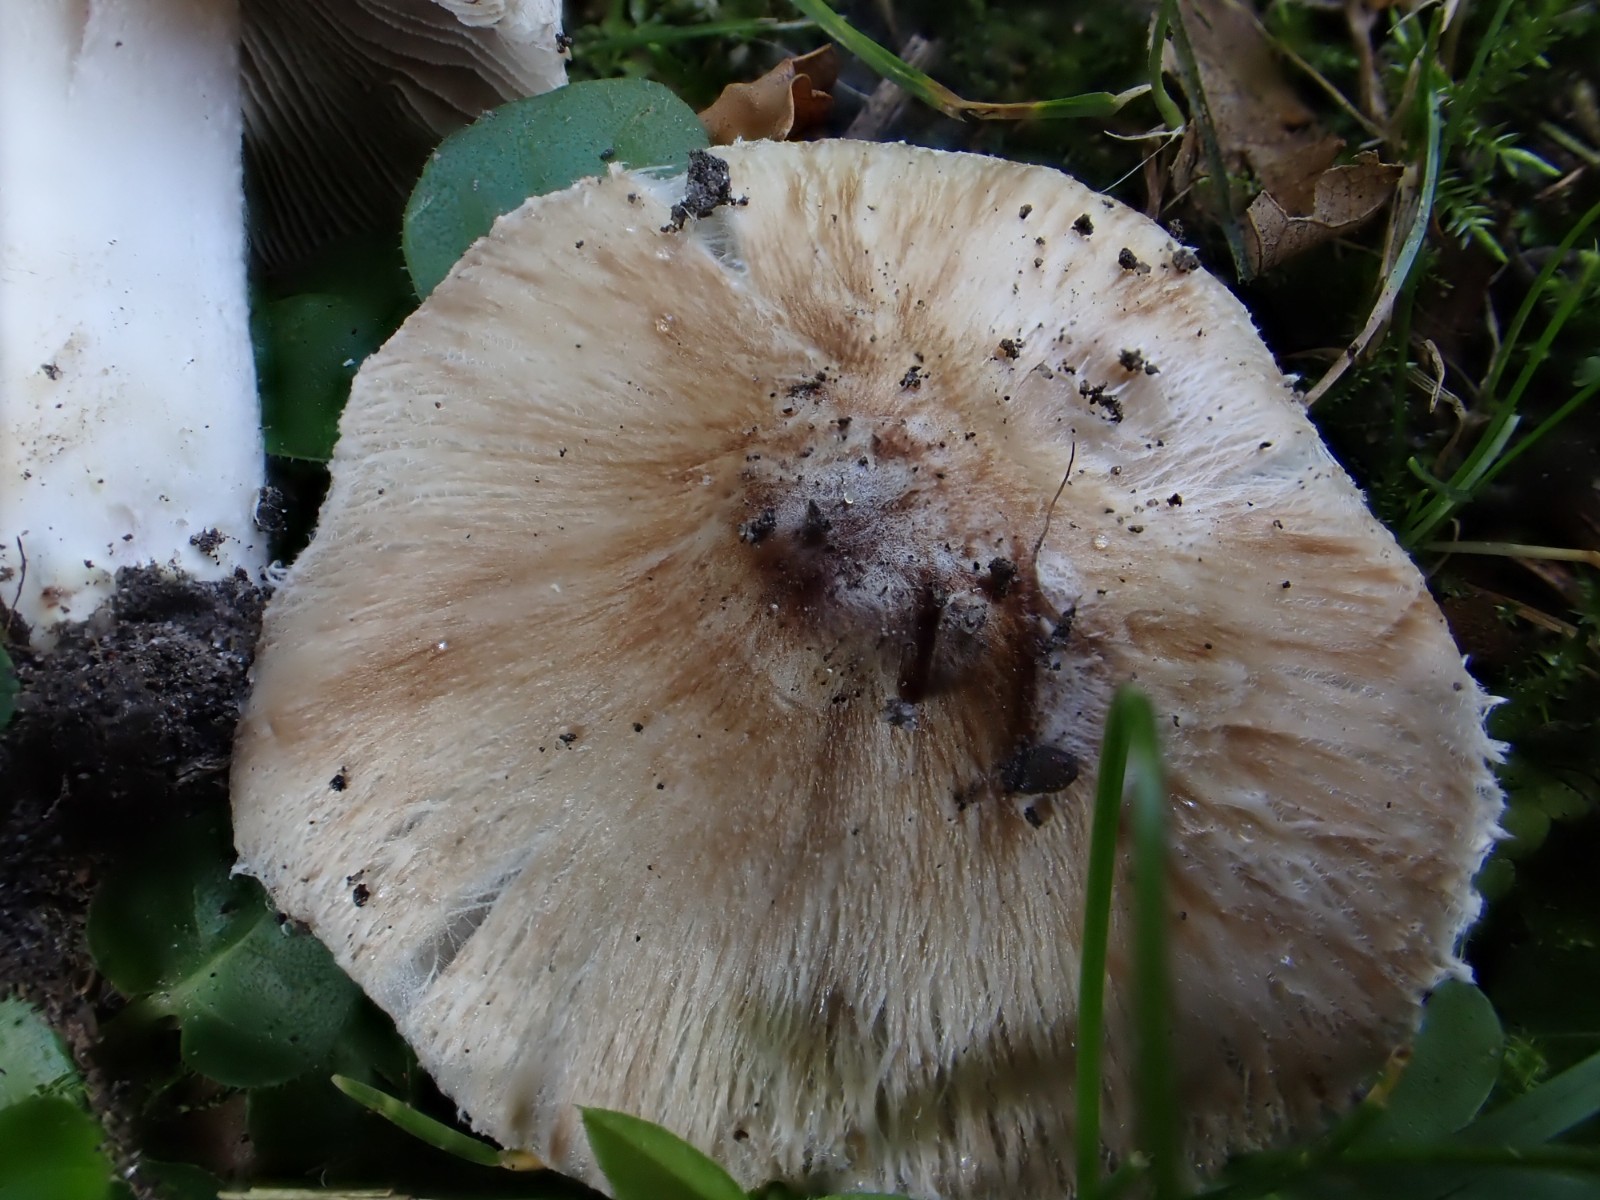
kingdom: Fungi
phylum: Basidiomycota
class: Agaricomycetes
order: Agaricales
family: Inocybaceae
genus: Pseudosperma
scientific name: Pseudosperma
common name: trævlhat
